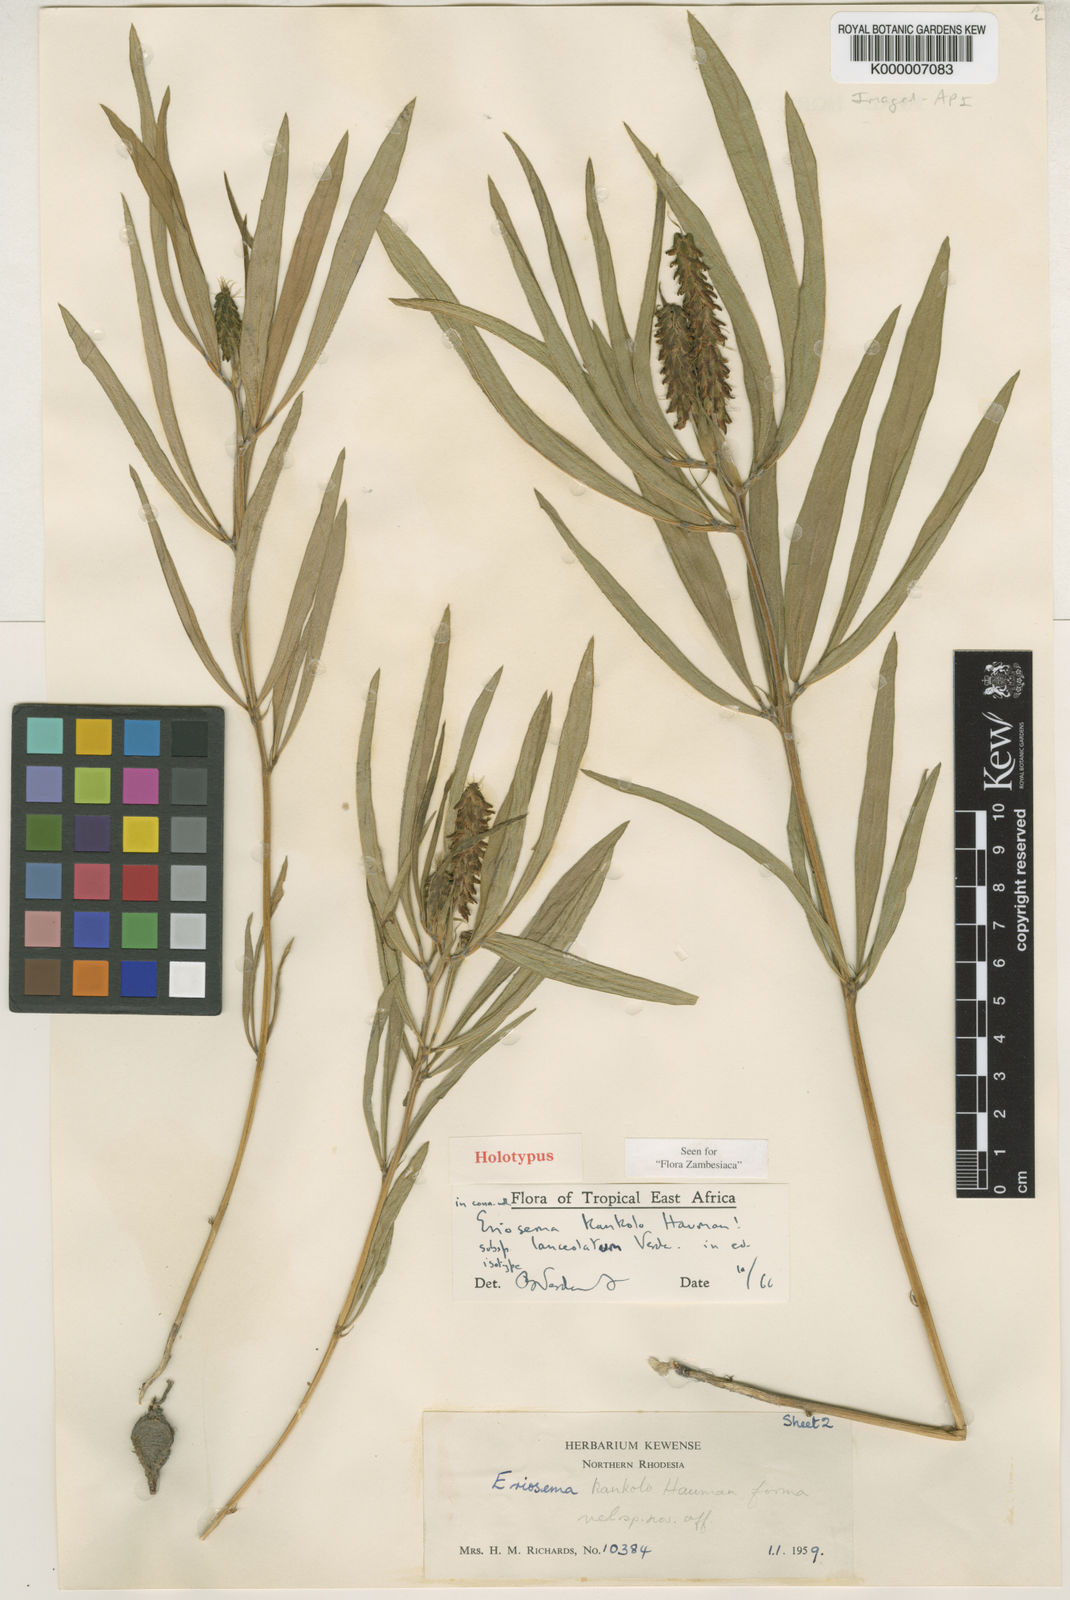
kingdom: Plantae
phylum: Tracheophyta
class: Magnoliopsida
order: Fabales
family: Fabaceae
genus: Eriosema
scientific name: Eriosema kankolo
